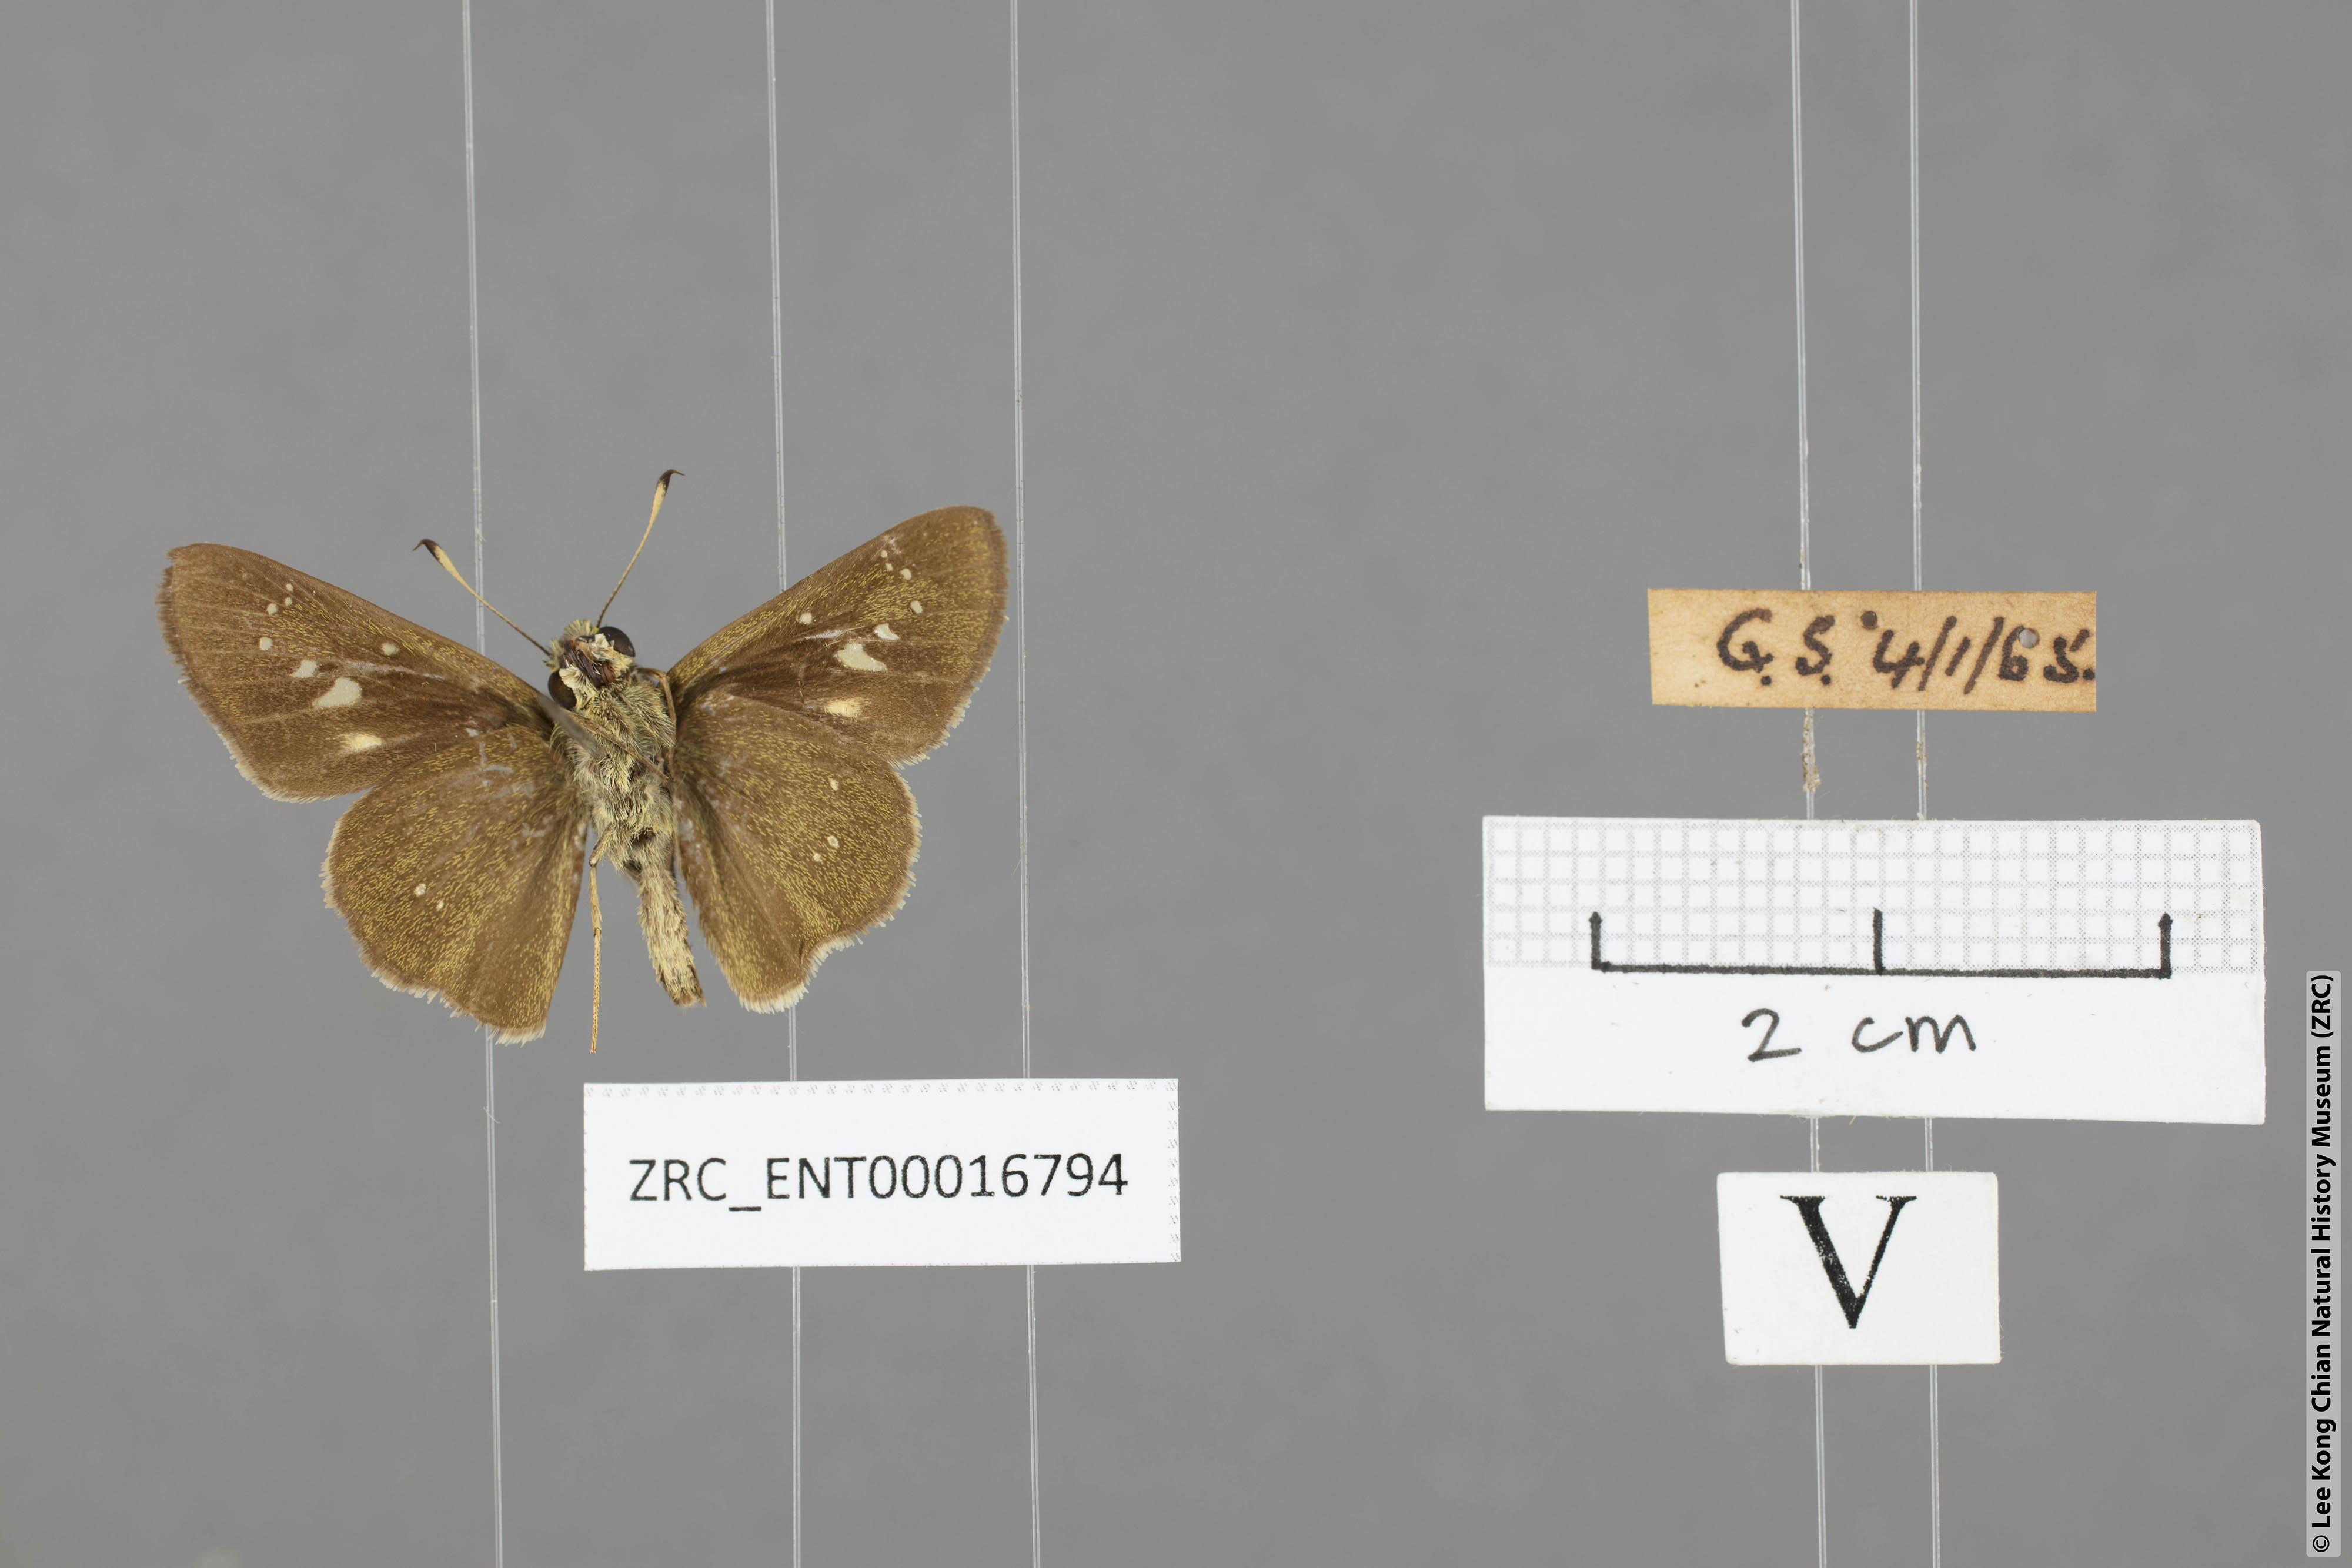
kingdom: Animalia
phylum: Arthropoda
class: Insecta
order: Lepidoptera
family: Hesperiidae
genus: Borbo
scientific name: Borbo cinnara
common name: Formosan swift
